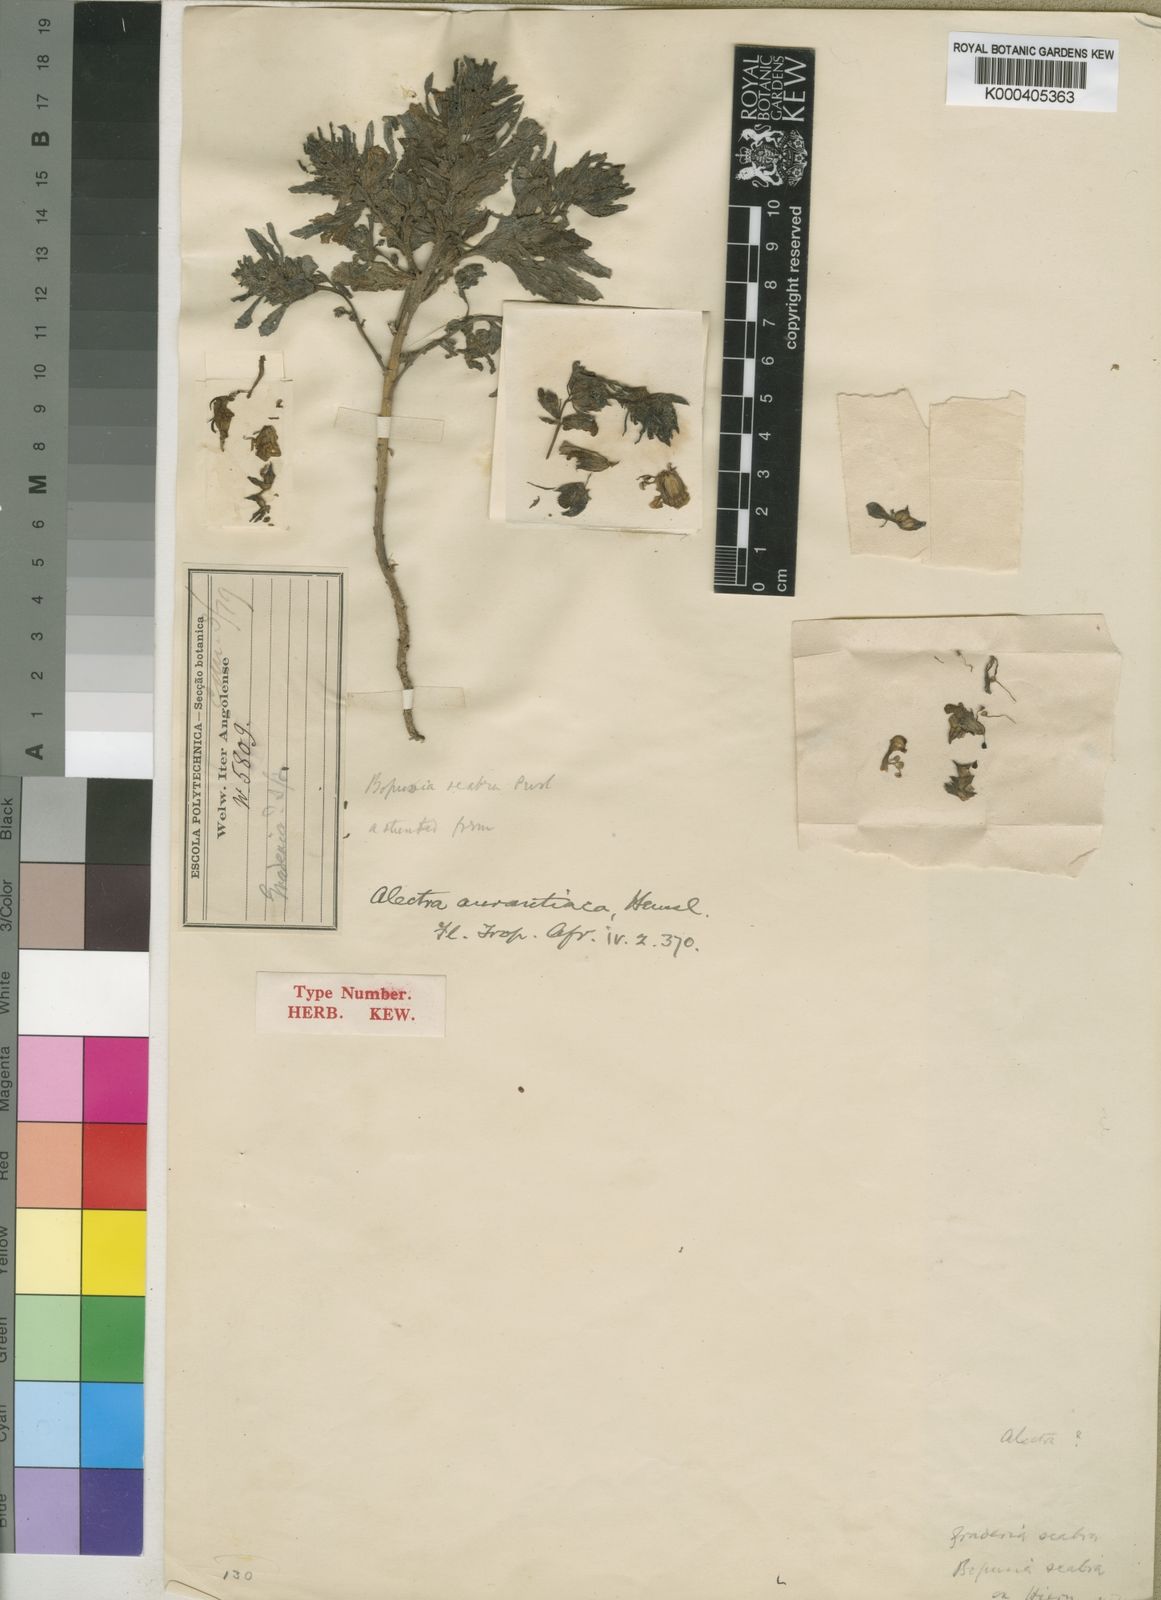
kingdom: Plantae
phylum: Tracheophyta
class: Magnoliopsida
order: Lamiales
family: Orobanchaceae
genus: Alectra
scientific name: Alectra aurantiaca
